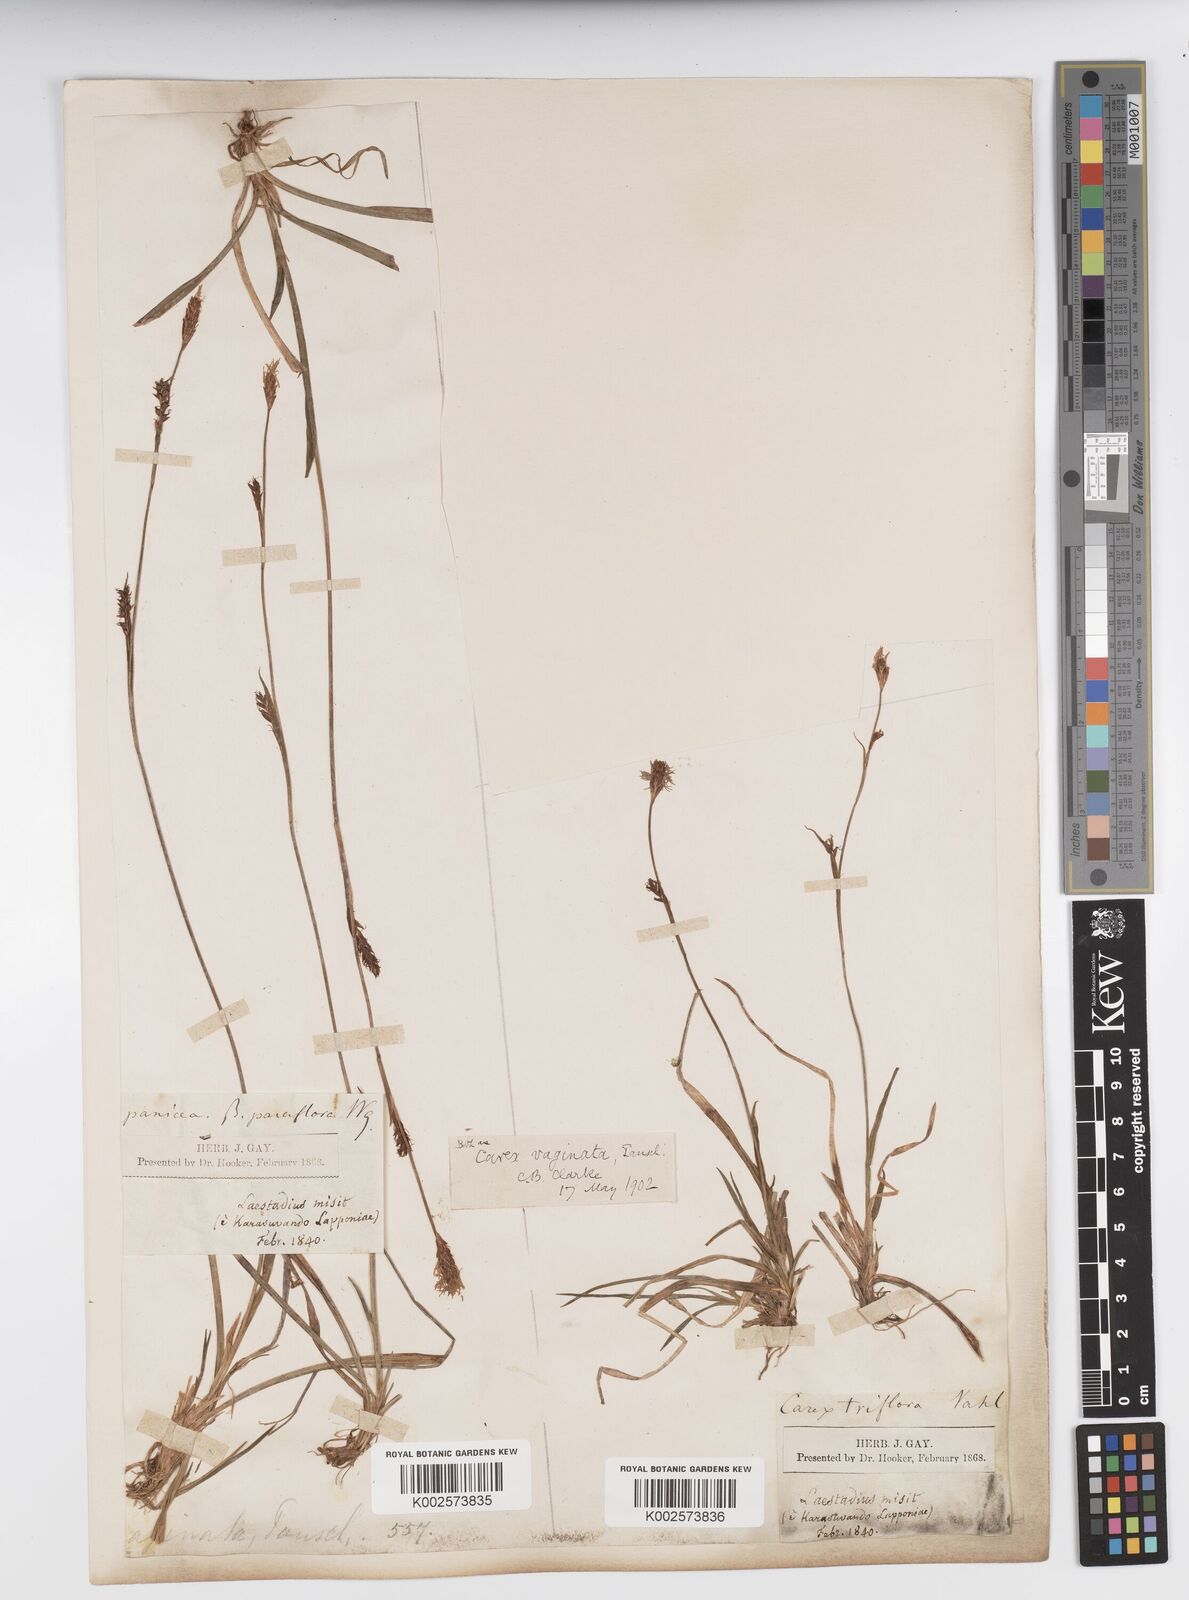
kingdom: Plantae
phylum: Tracheophyta
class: Liliopsida
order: Poales
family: Cyperaceae
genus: Carex
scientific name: Carex vaginata
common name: Sheathed sedge
